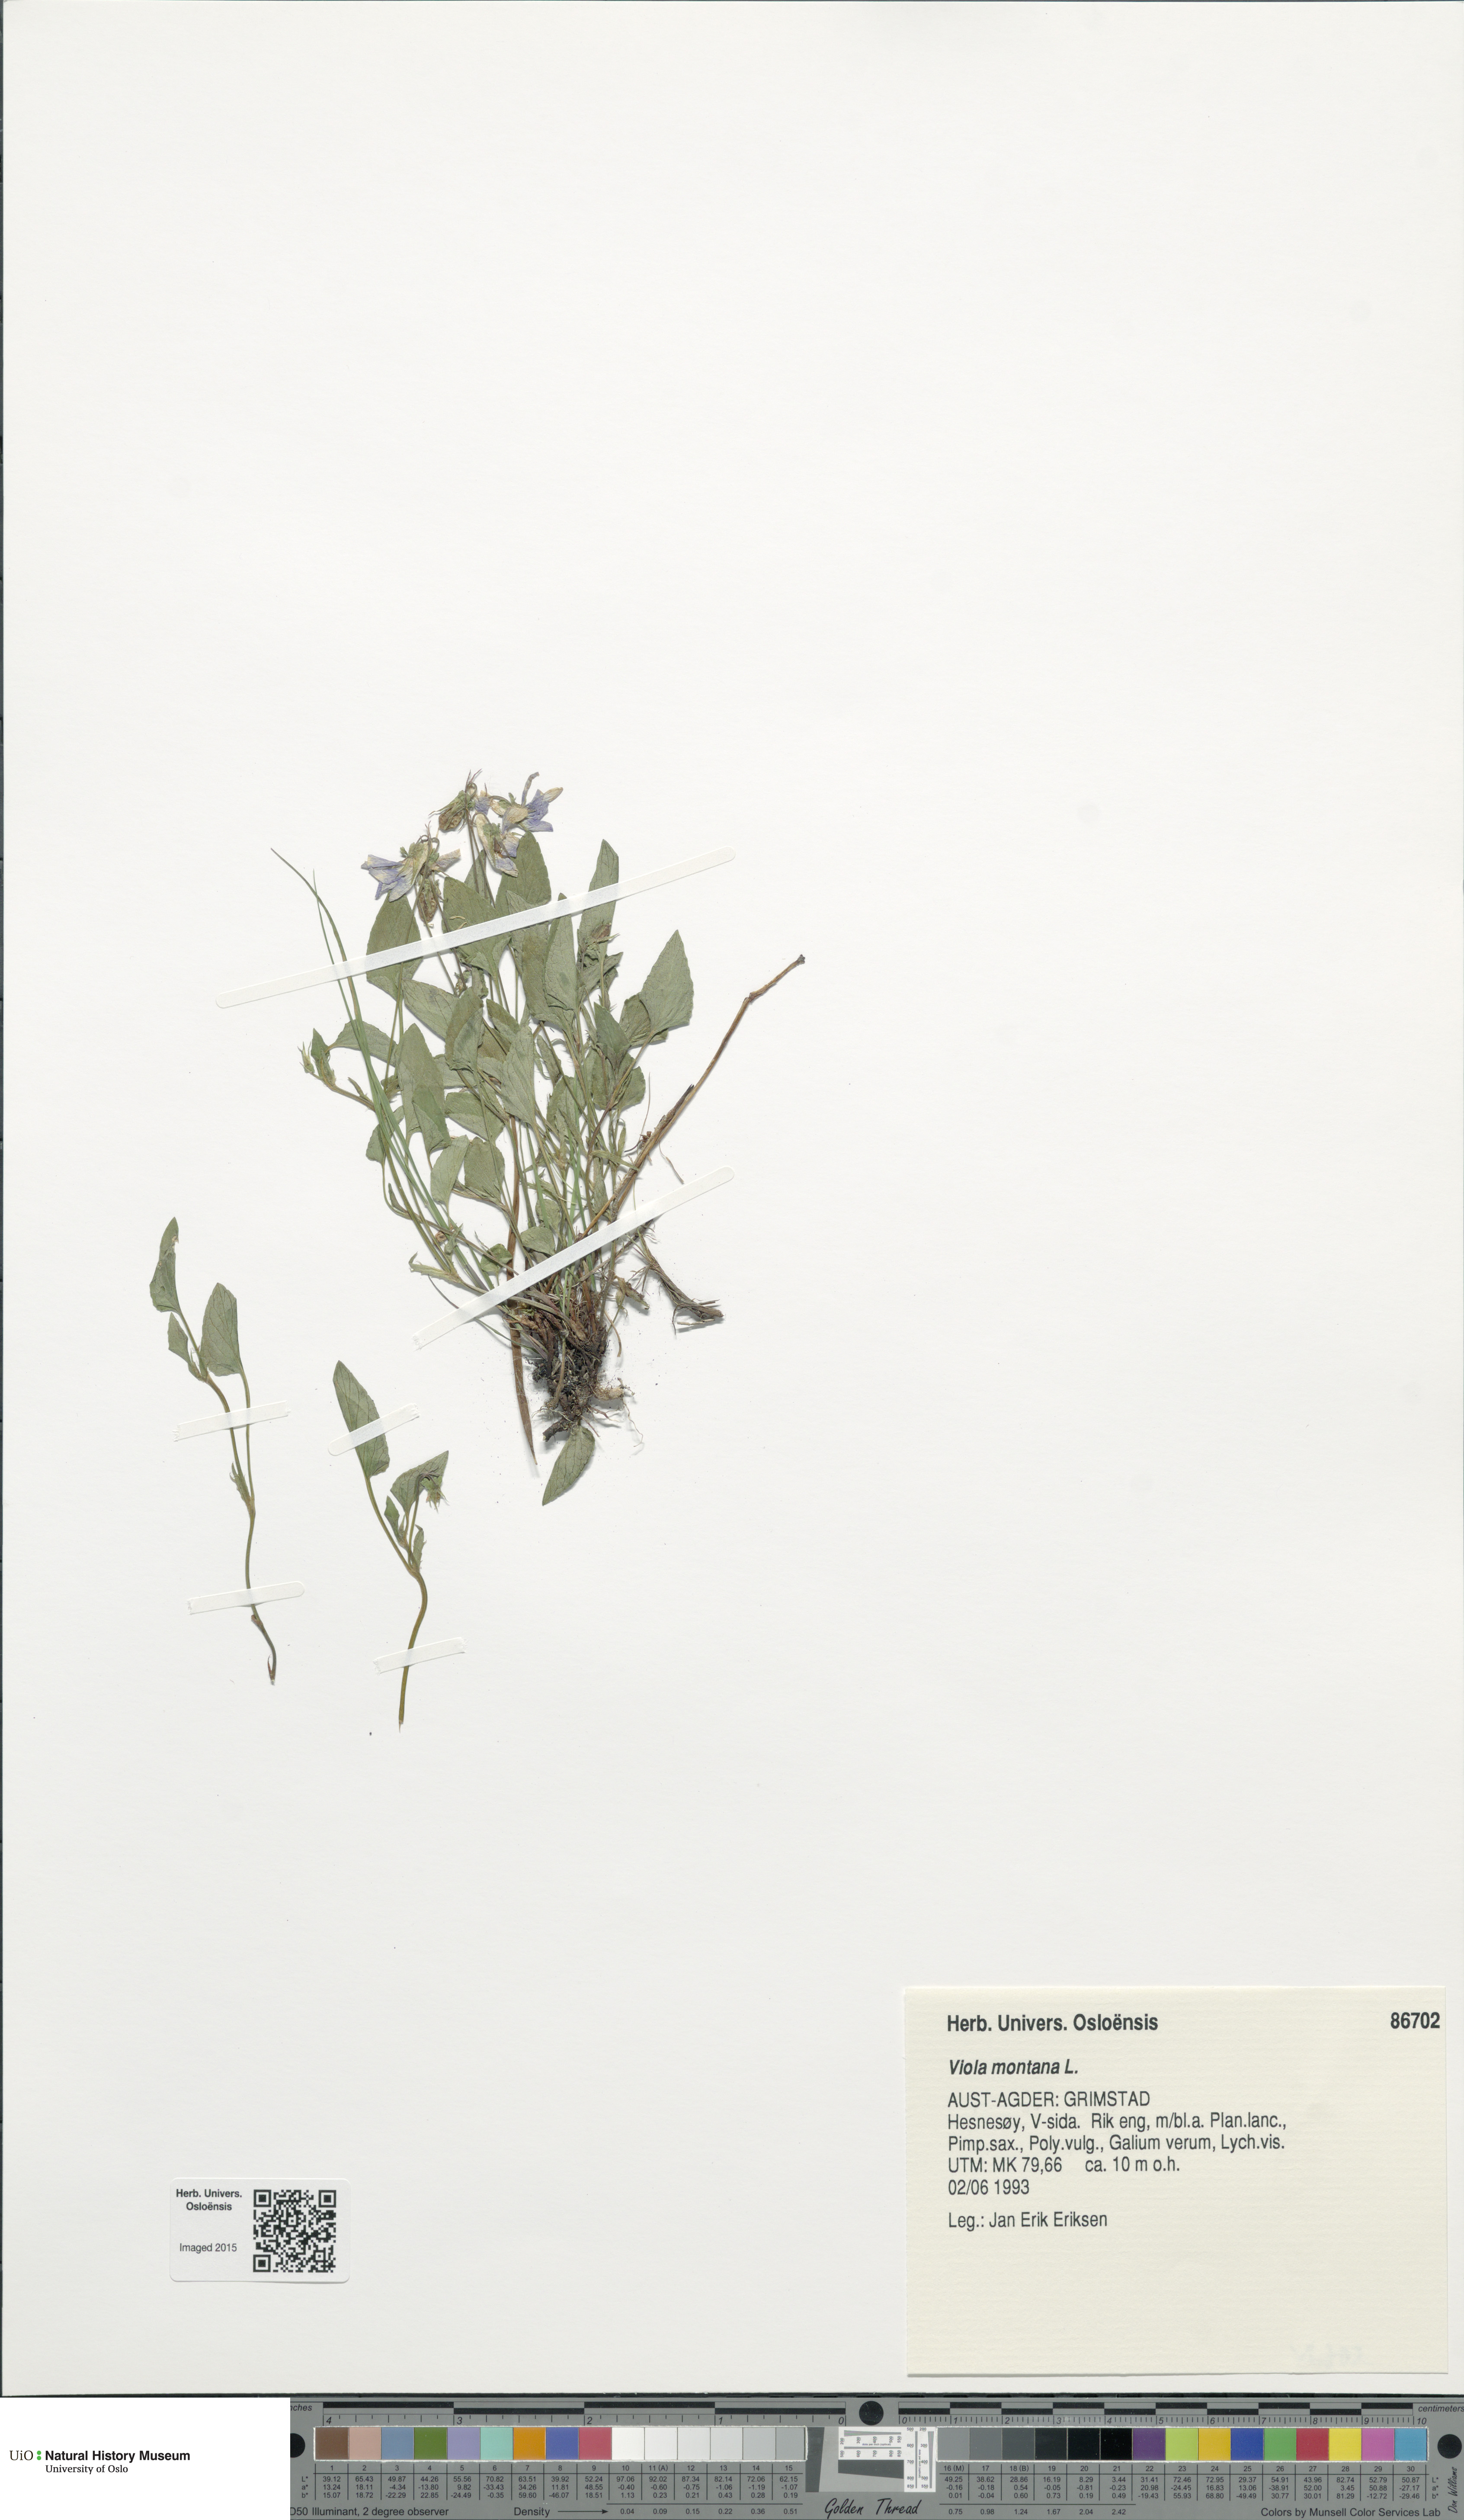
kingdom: Plantae
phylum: Tracheophyta
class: Magnoliopsida
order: Malpighiales
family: Violaceae
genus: Viola
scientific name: Viola ruppii
